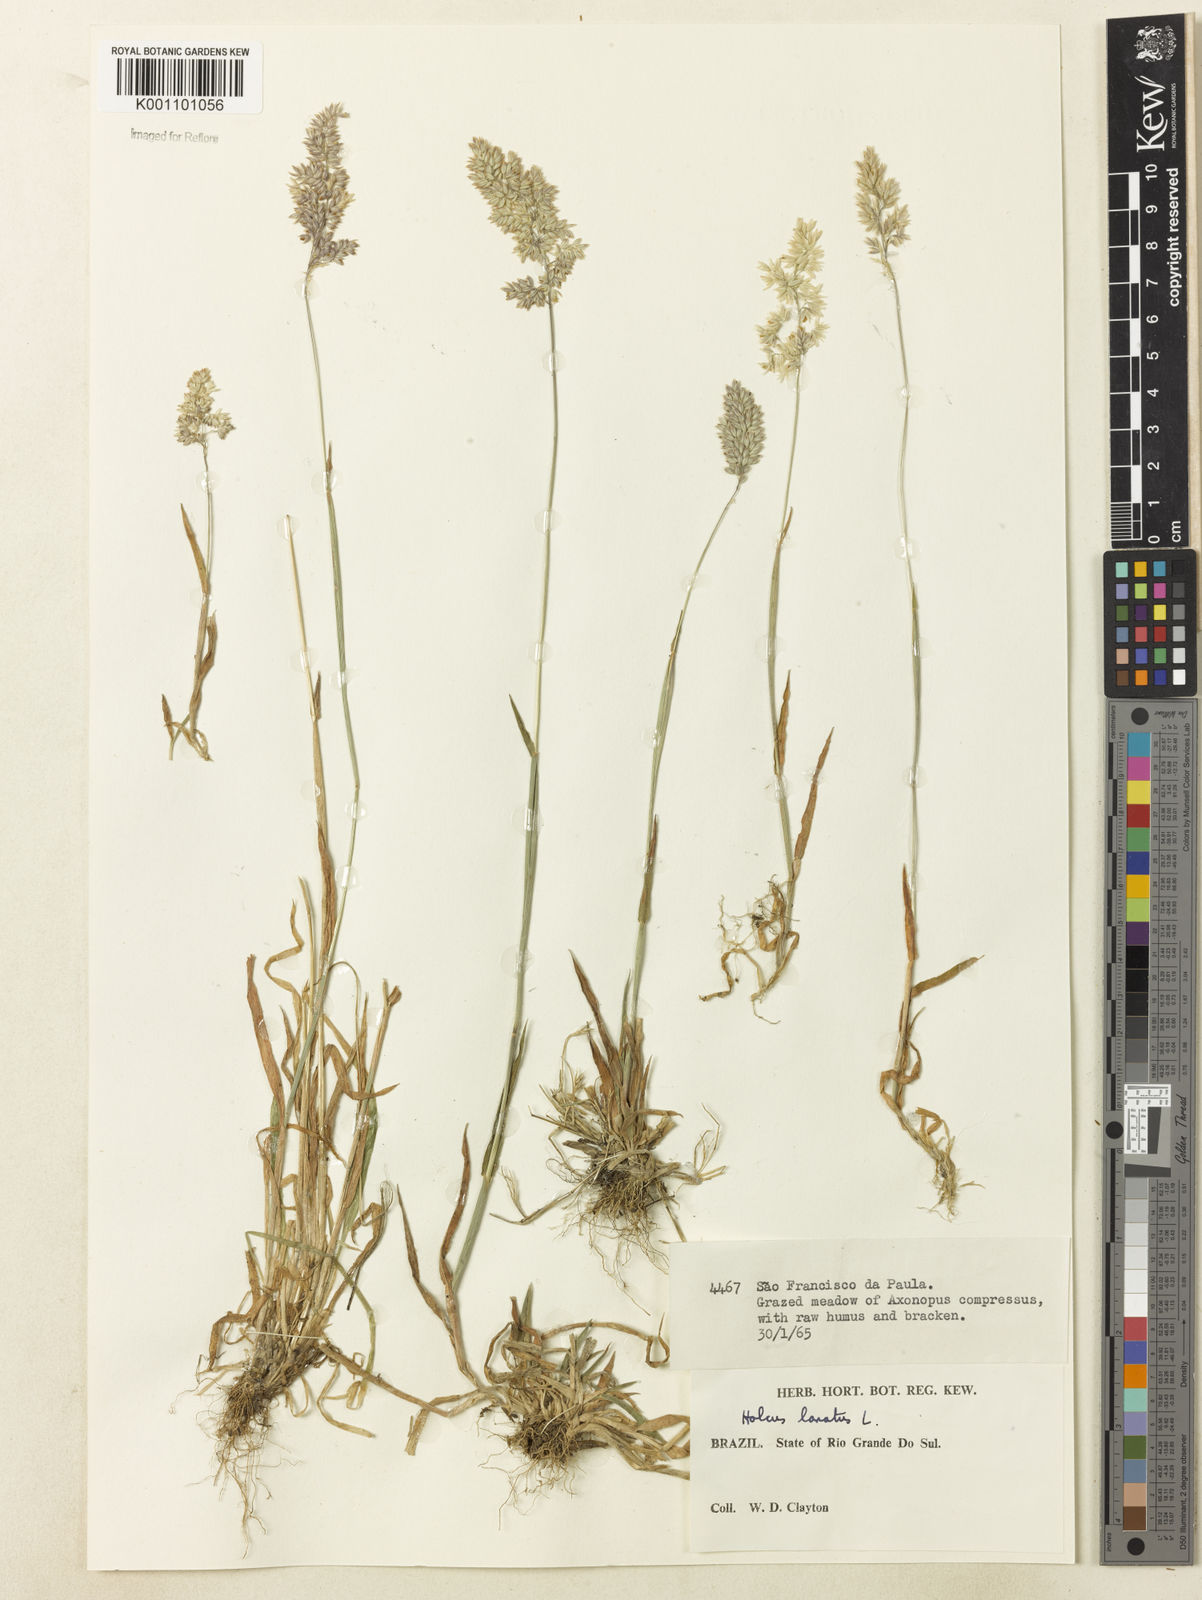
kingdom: Plantae
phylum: Tracheophyta
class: Liliopsida
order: Poales
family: Poaceae
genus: Holcus
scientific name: Holcus lanatus
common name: Yorkshire-fog
